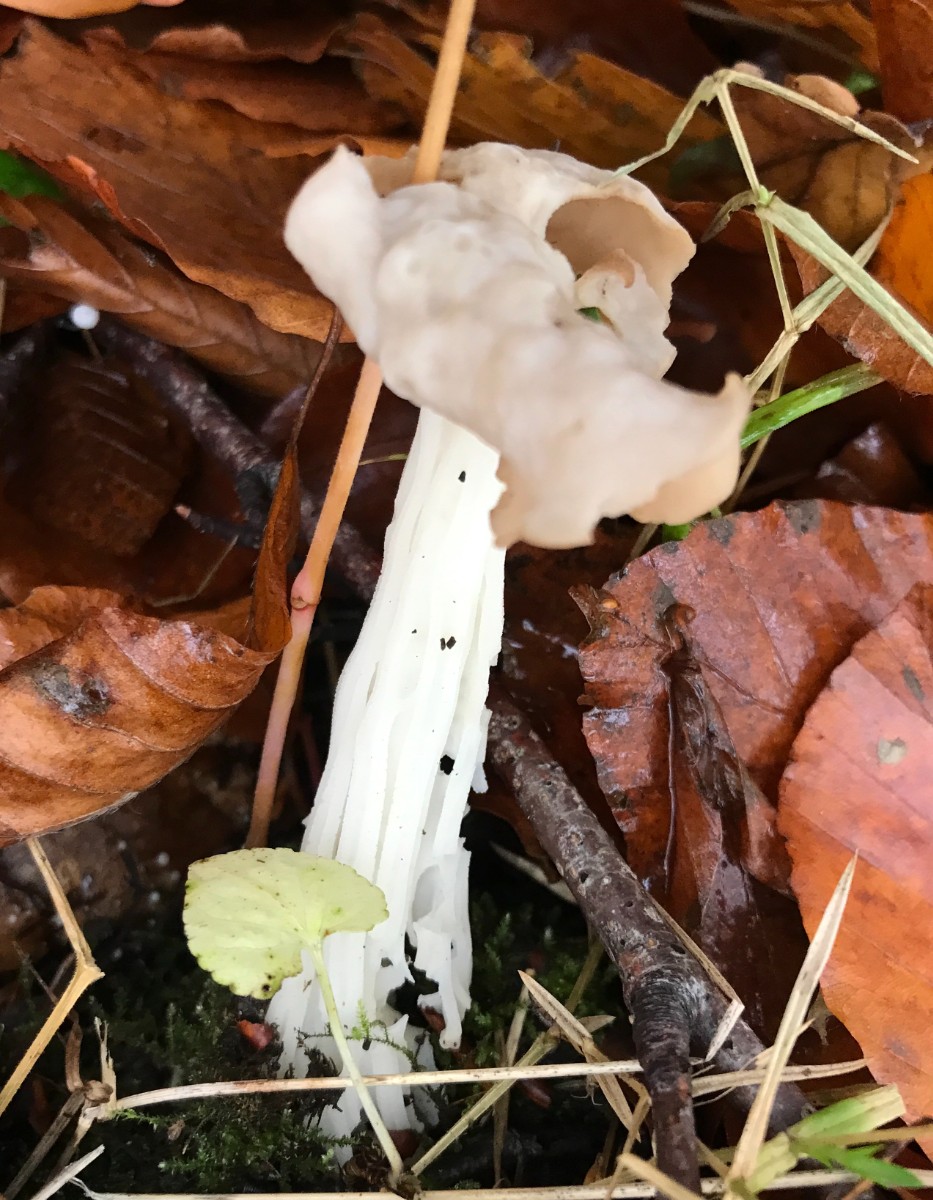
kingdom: Fungi
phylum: Ascomycota
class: Pezizomycetes
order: Pezizales
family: Helvellaceae
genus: Helvella
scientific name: Helvella crispa
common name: kruset foldhat
